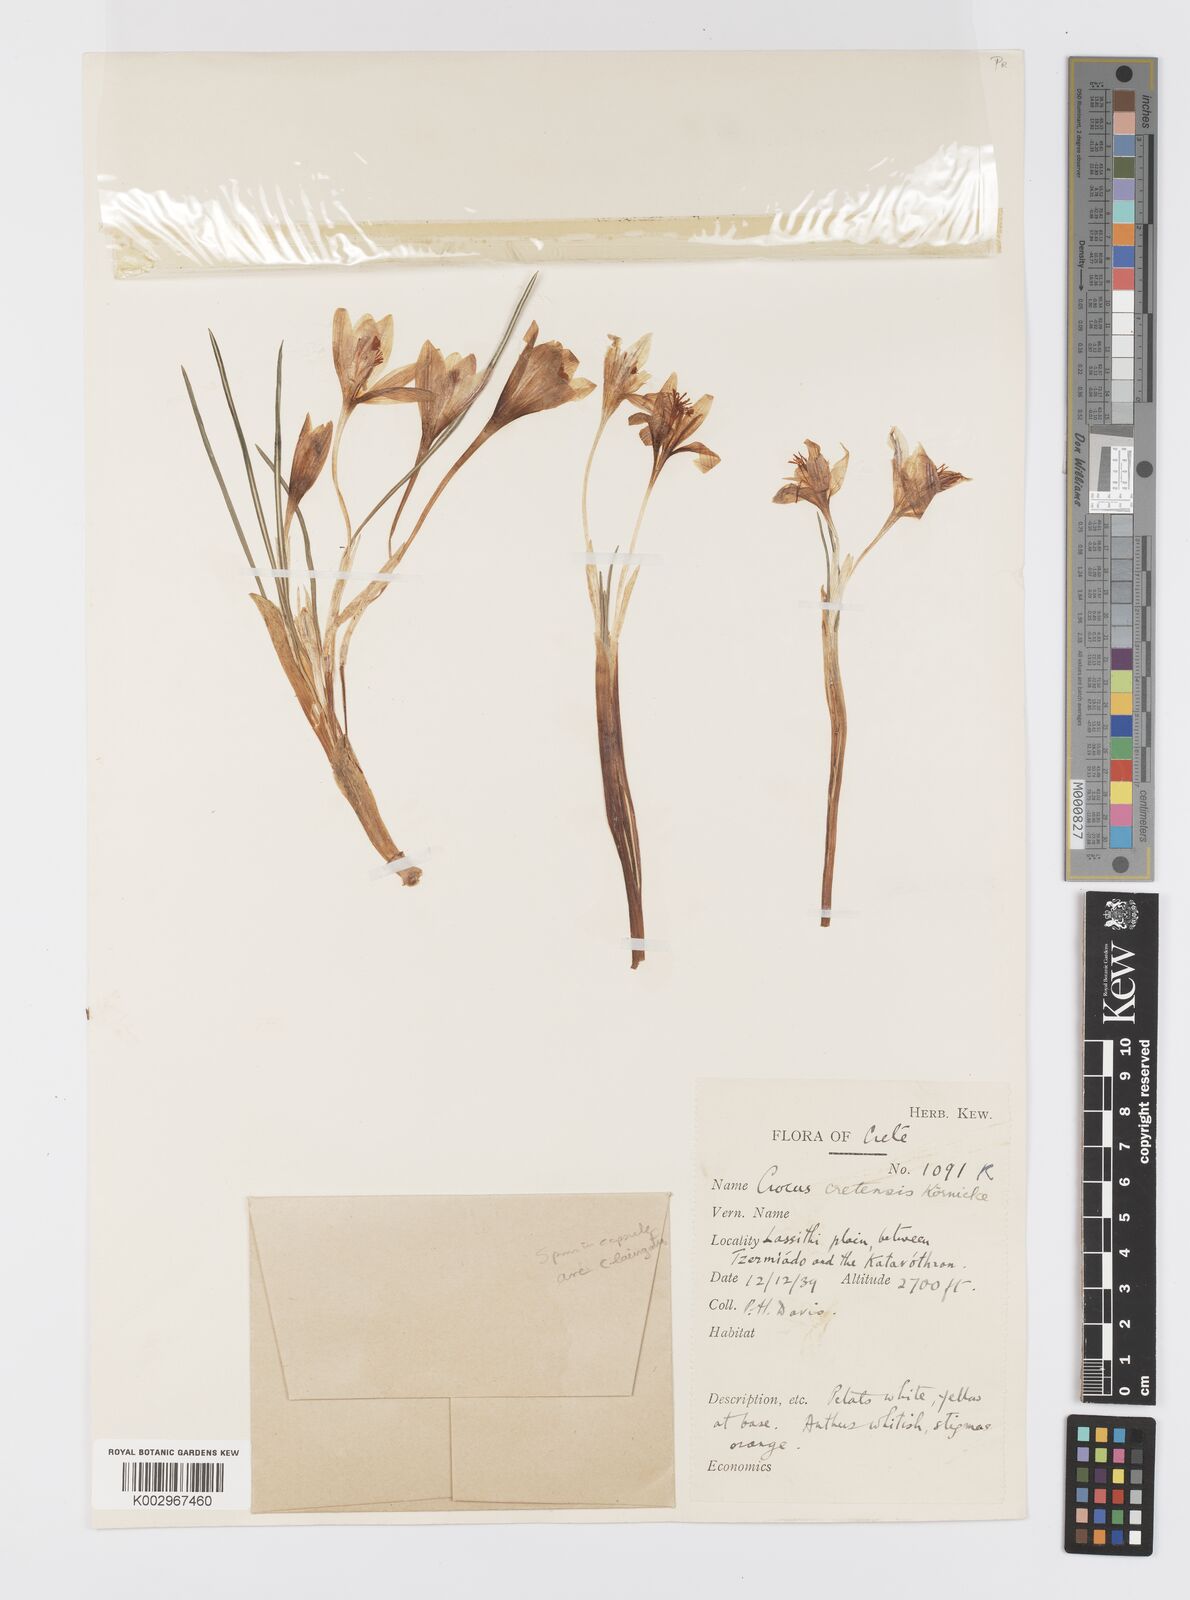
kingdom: Plantae
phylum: Tracheophyta
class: Liliopsida
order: Asparagales
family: Iridaceae
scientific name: Iridaceae
